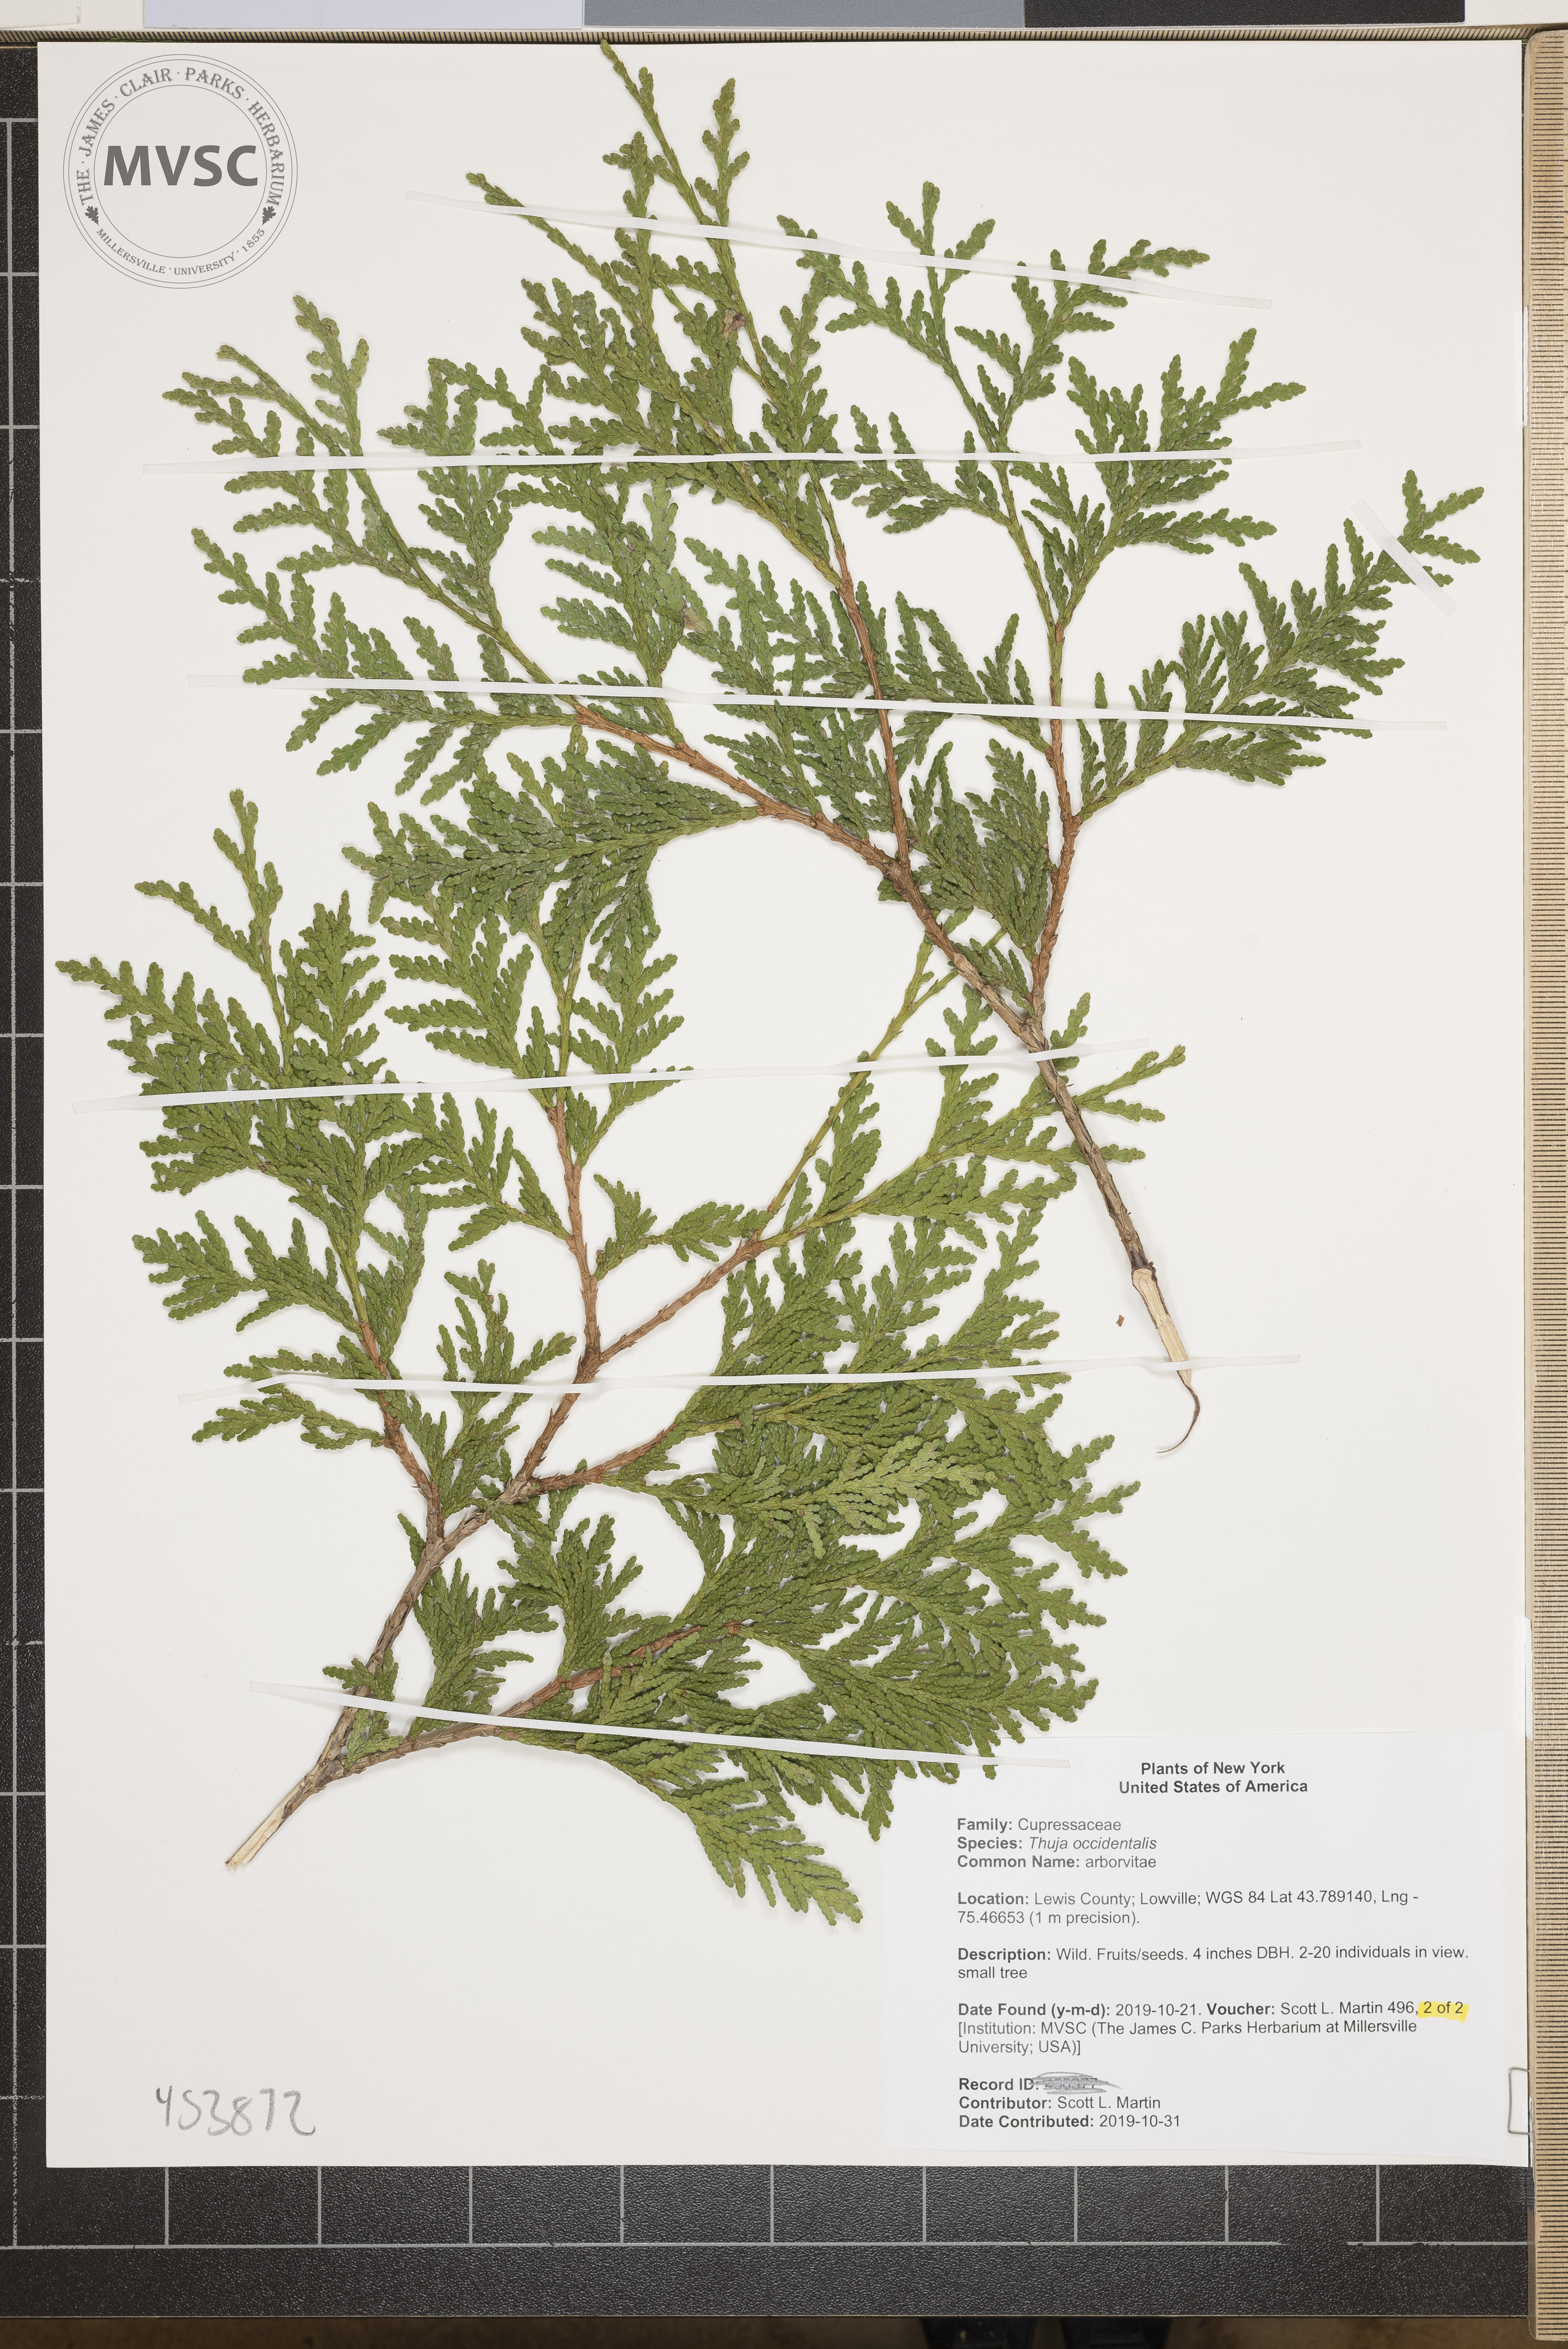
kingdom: Plantae
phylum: Tracheophyta
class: Pinopsida
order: Pinales
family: Cupressaceae
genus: Thuja
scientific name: Thuja occidentalis
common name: arborvitae
